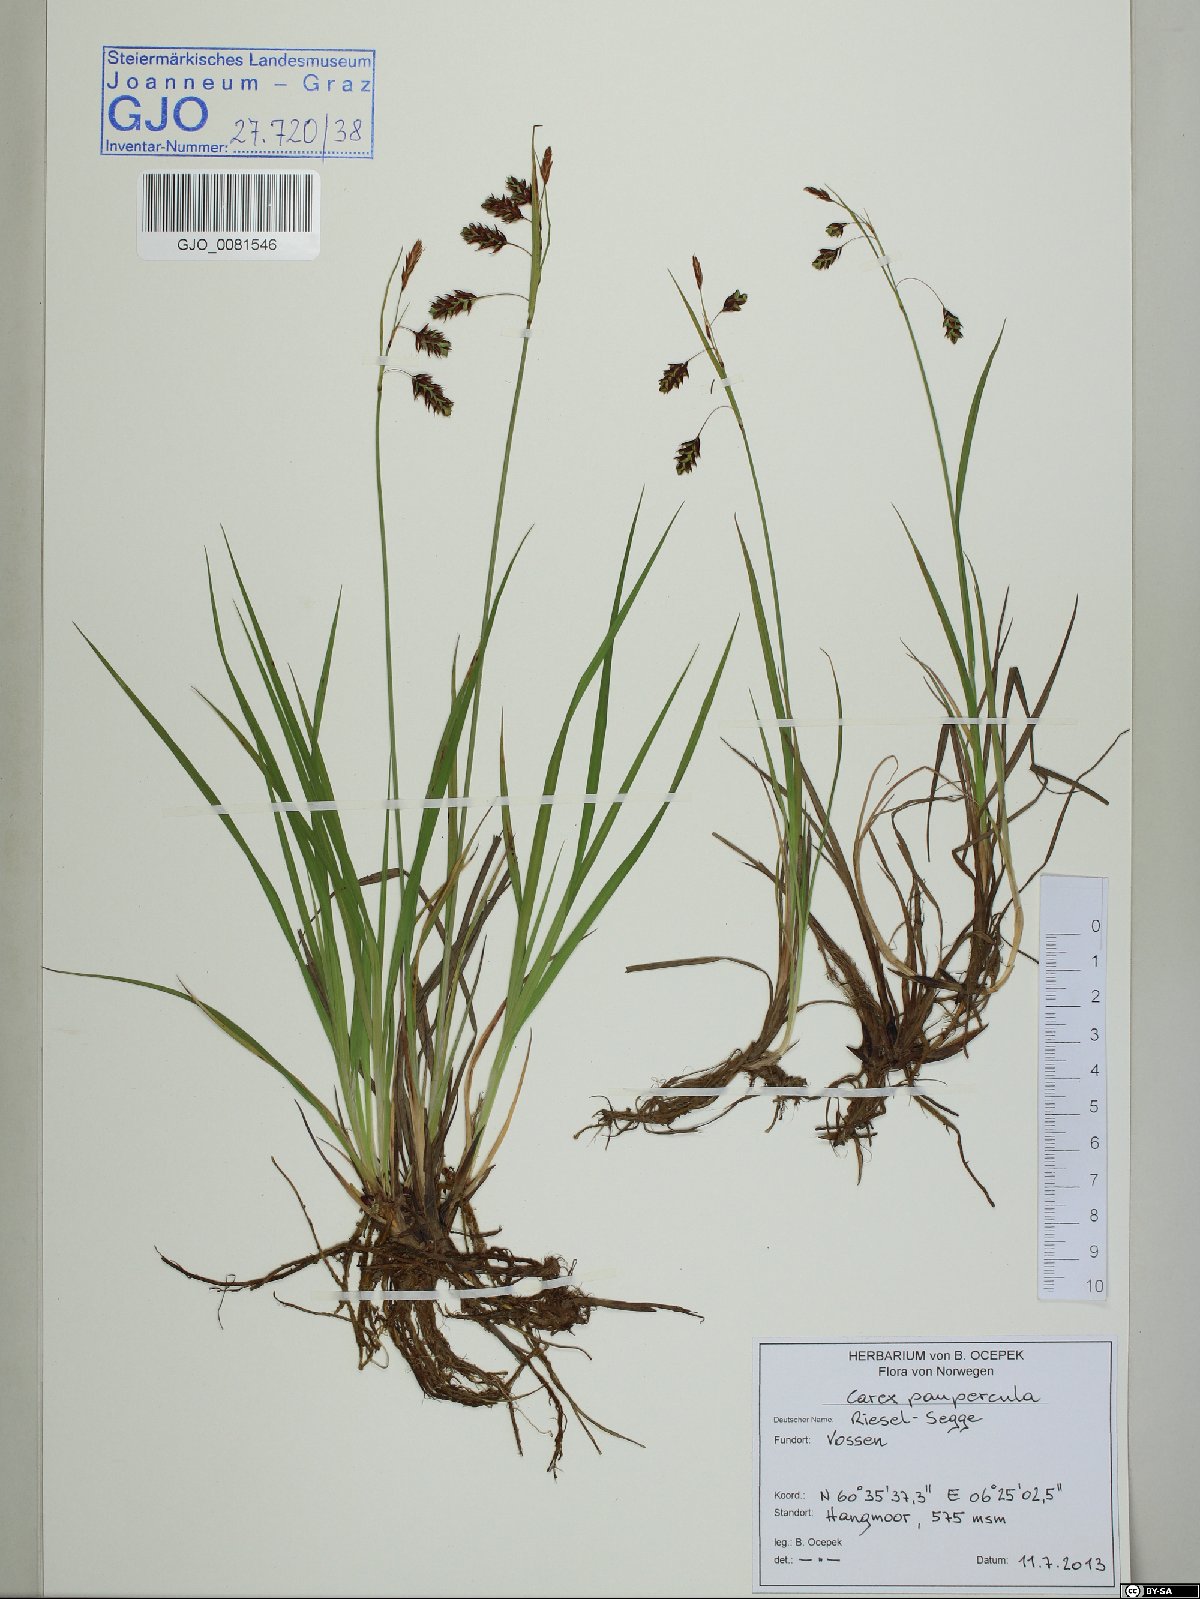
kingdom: Plantae
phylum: Tracheophyta
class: Liliopsida
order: Poales
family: Cyperaceae
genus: Carex
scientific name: Carex magellanica
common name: Bog sedge
